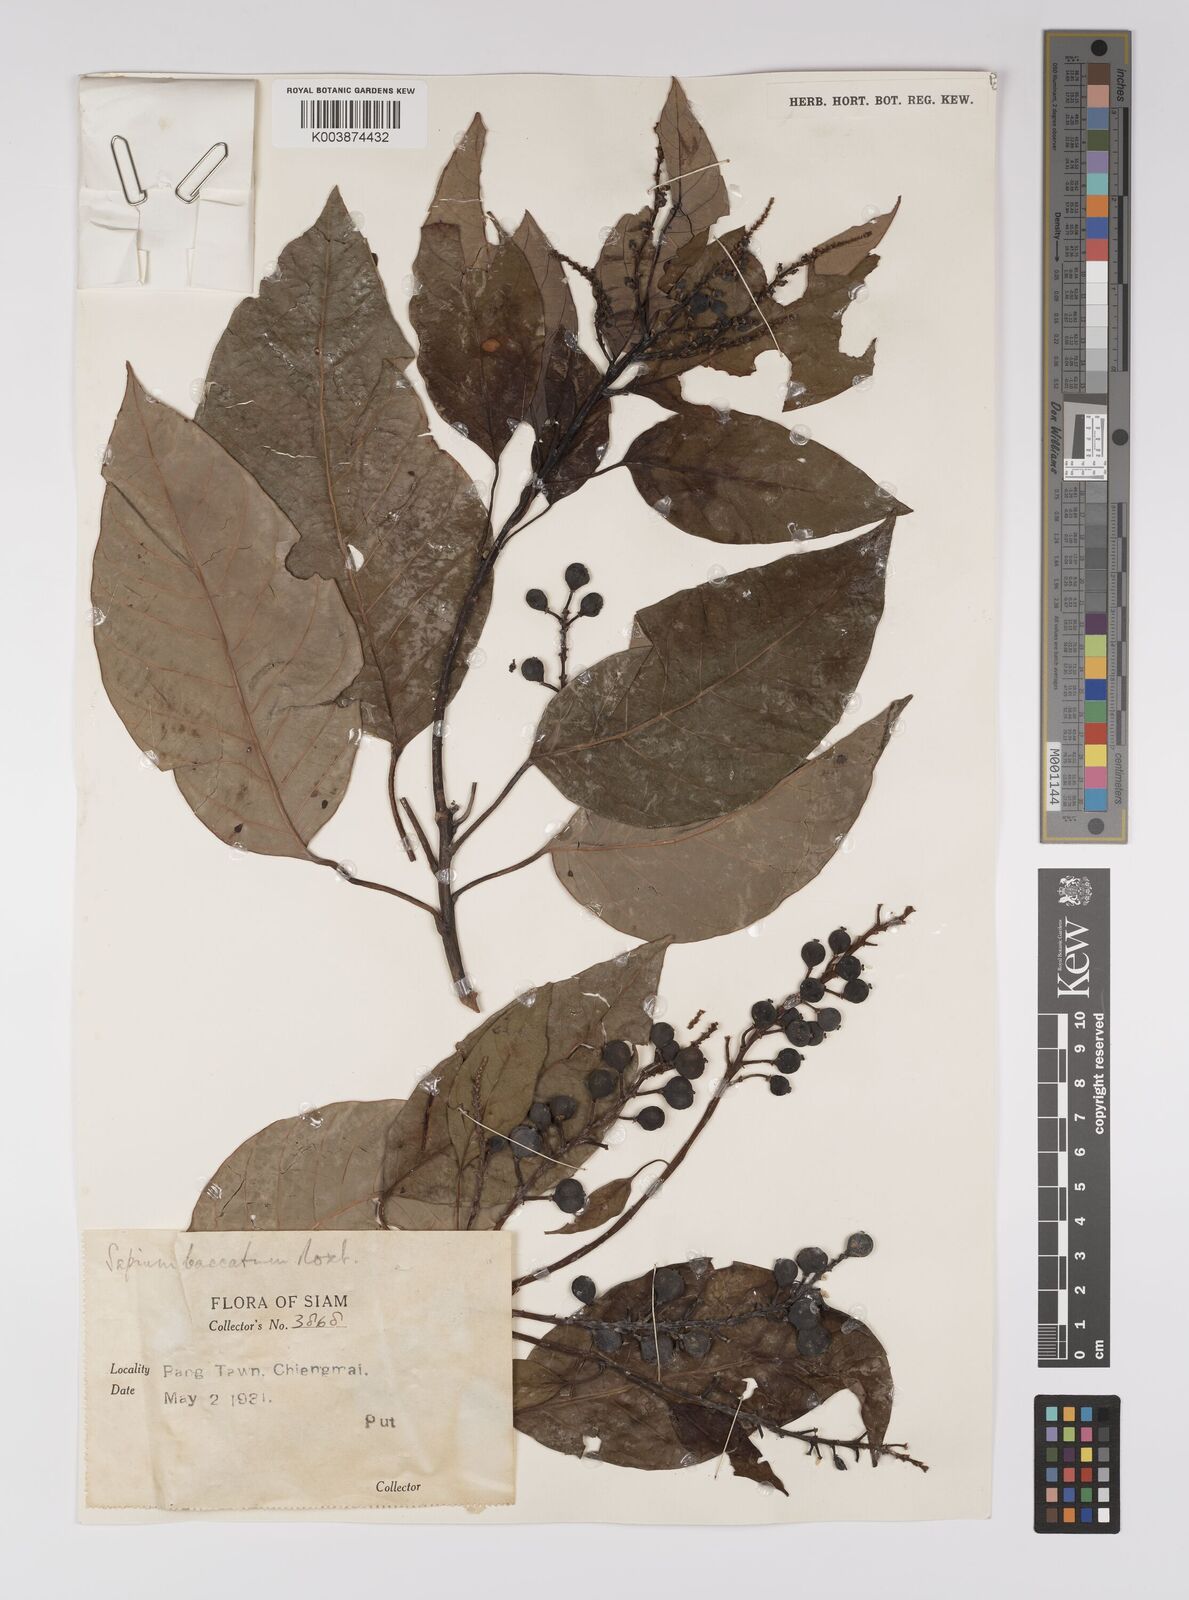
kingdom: Plantae
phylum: Tracheophyta
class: Magnoliopsida
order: Malpighiales
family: Euphorbiaceae
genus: Balakata
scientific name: Balakata baccata
